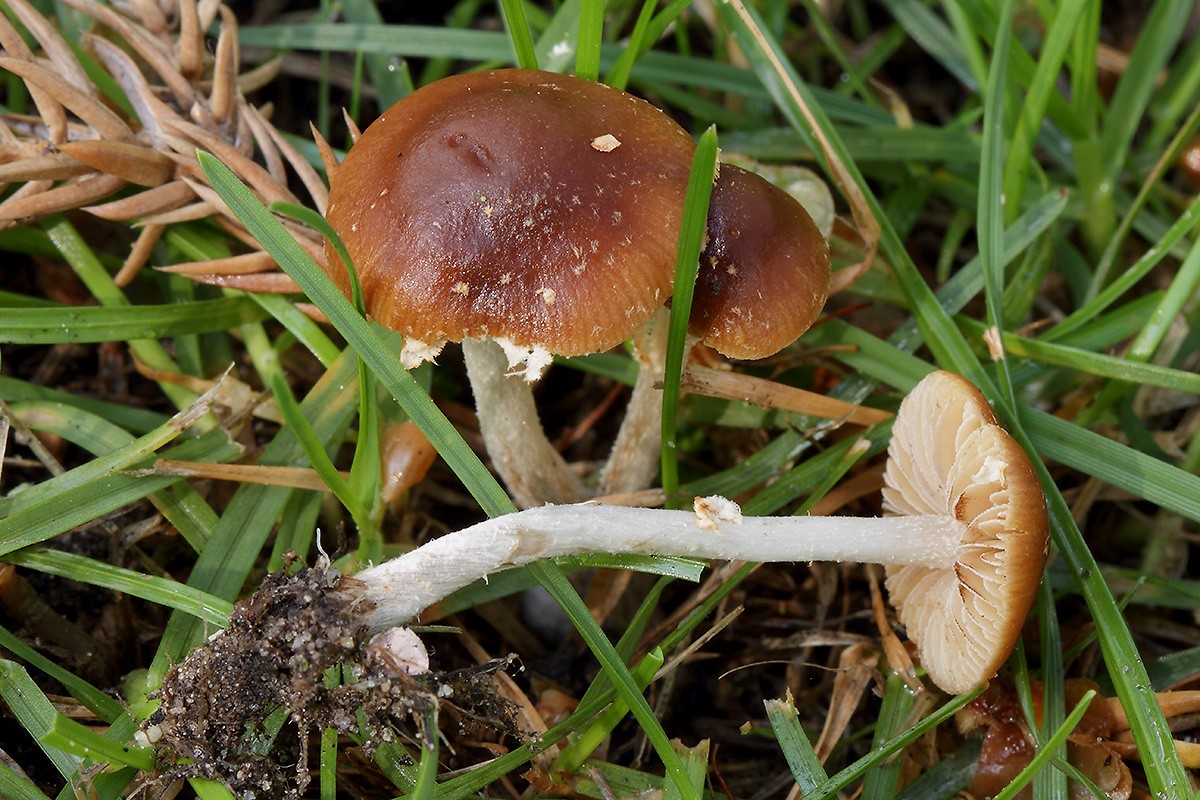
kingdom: Fungi
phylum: Basidiomycota
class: Agaricomycetes
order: Agaricales
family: Bolbitiaceae
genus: Conocybe
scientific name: Conocybe arrhenii
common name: ring-dansehat
